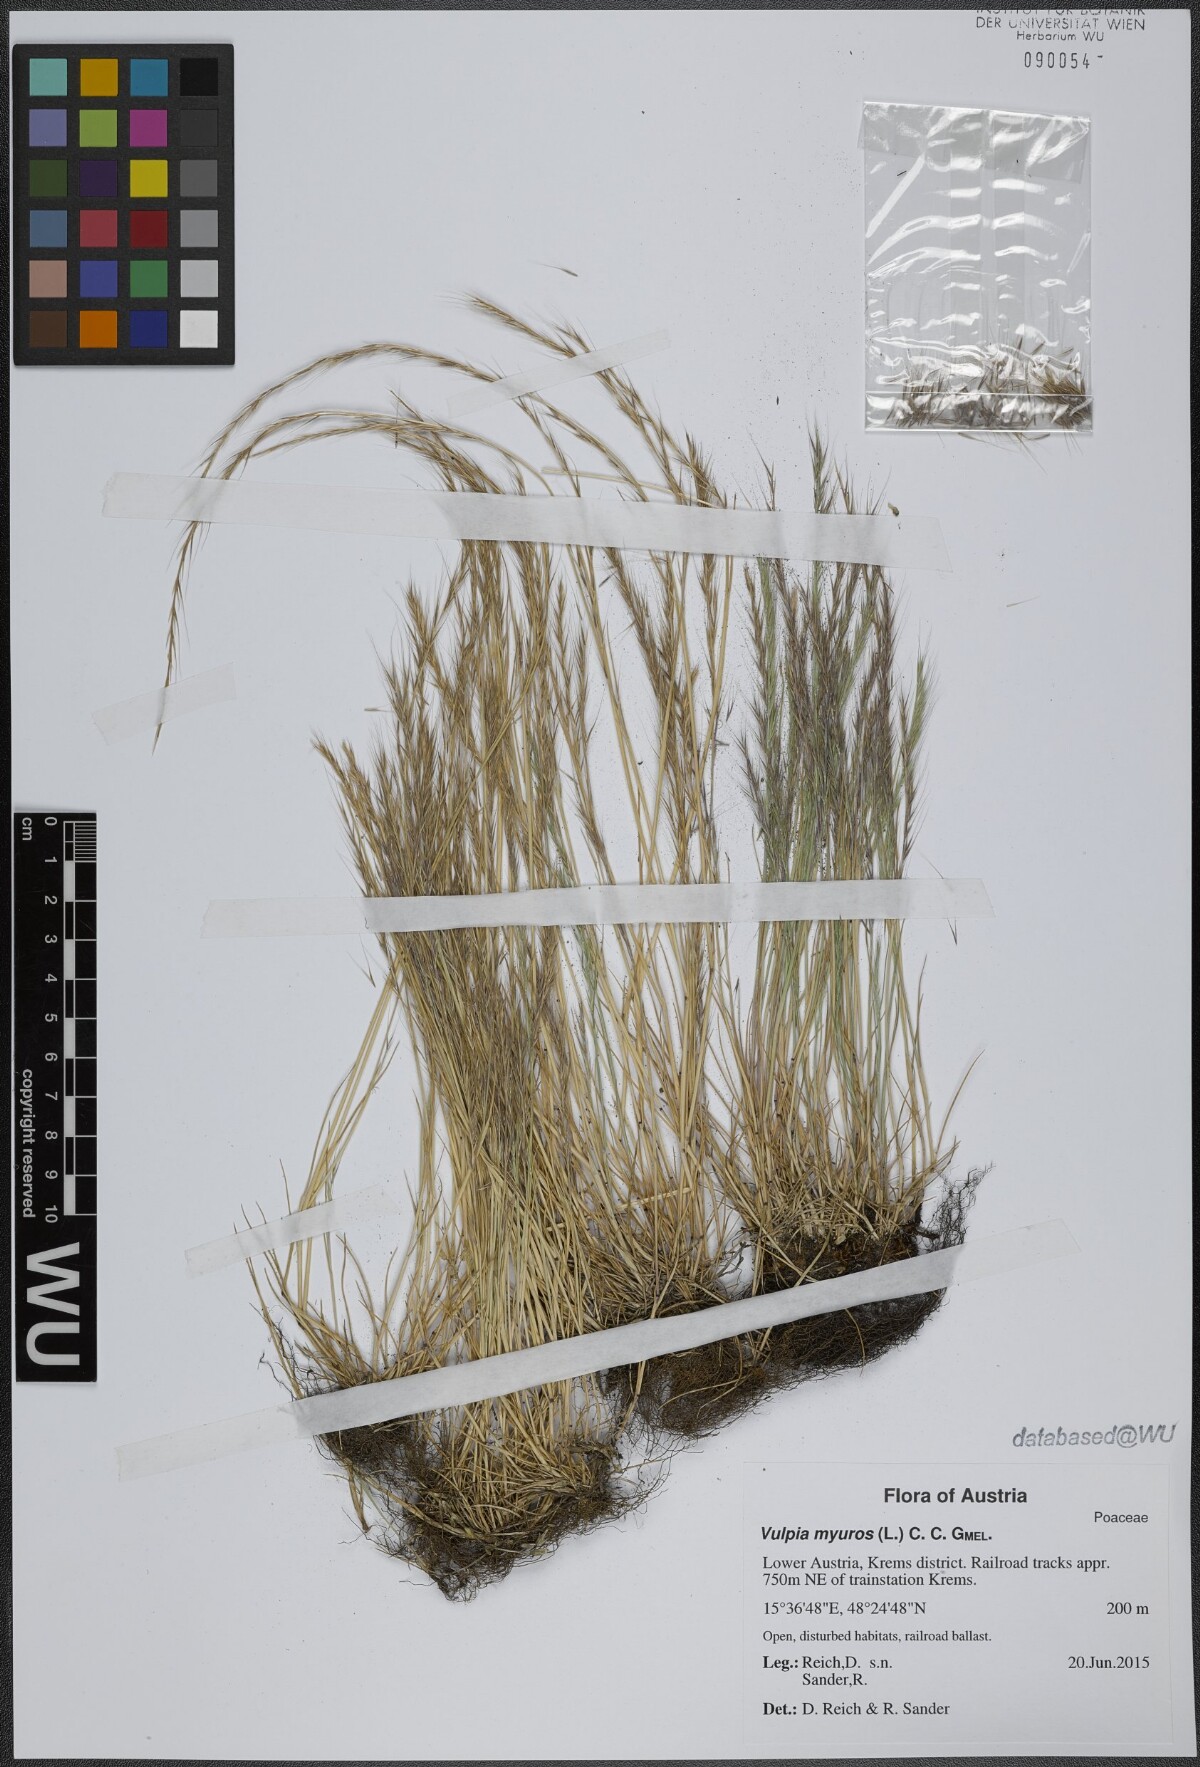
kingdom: Plantae
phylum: Tracheophyta
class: Liliopsida
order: Poales
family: Poaceae
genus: Festuca
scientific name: Festuca myuros
